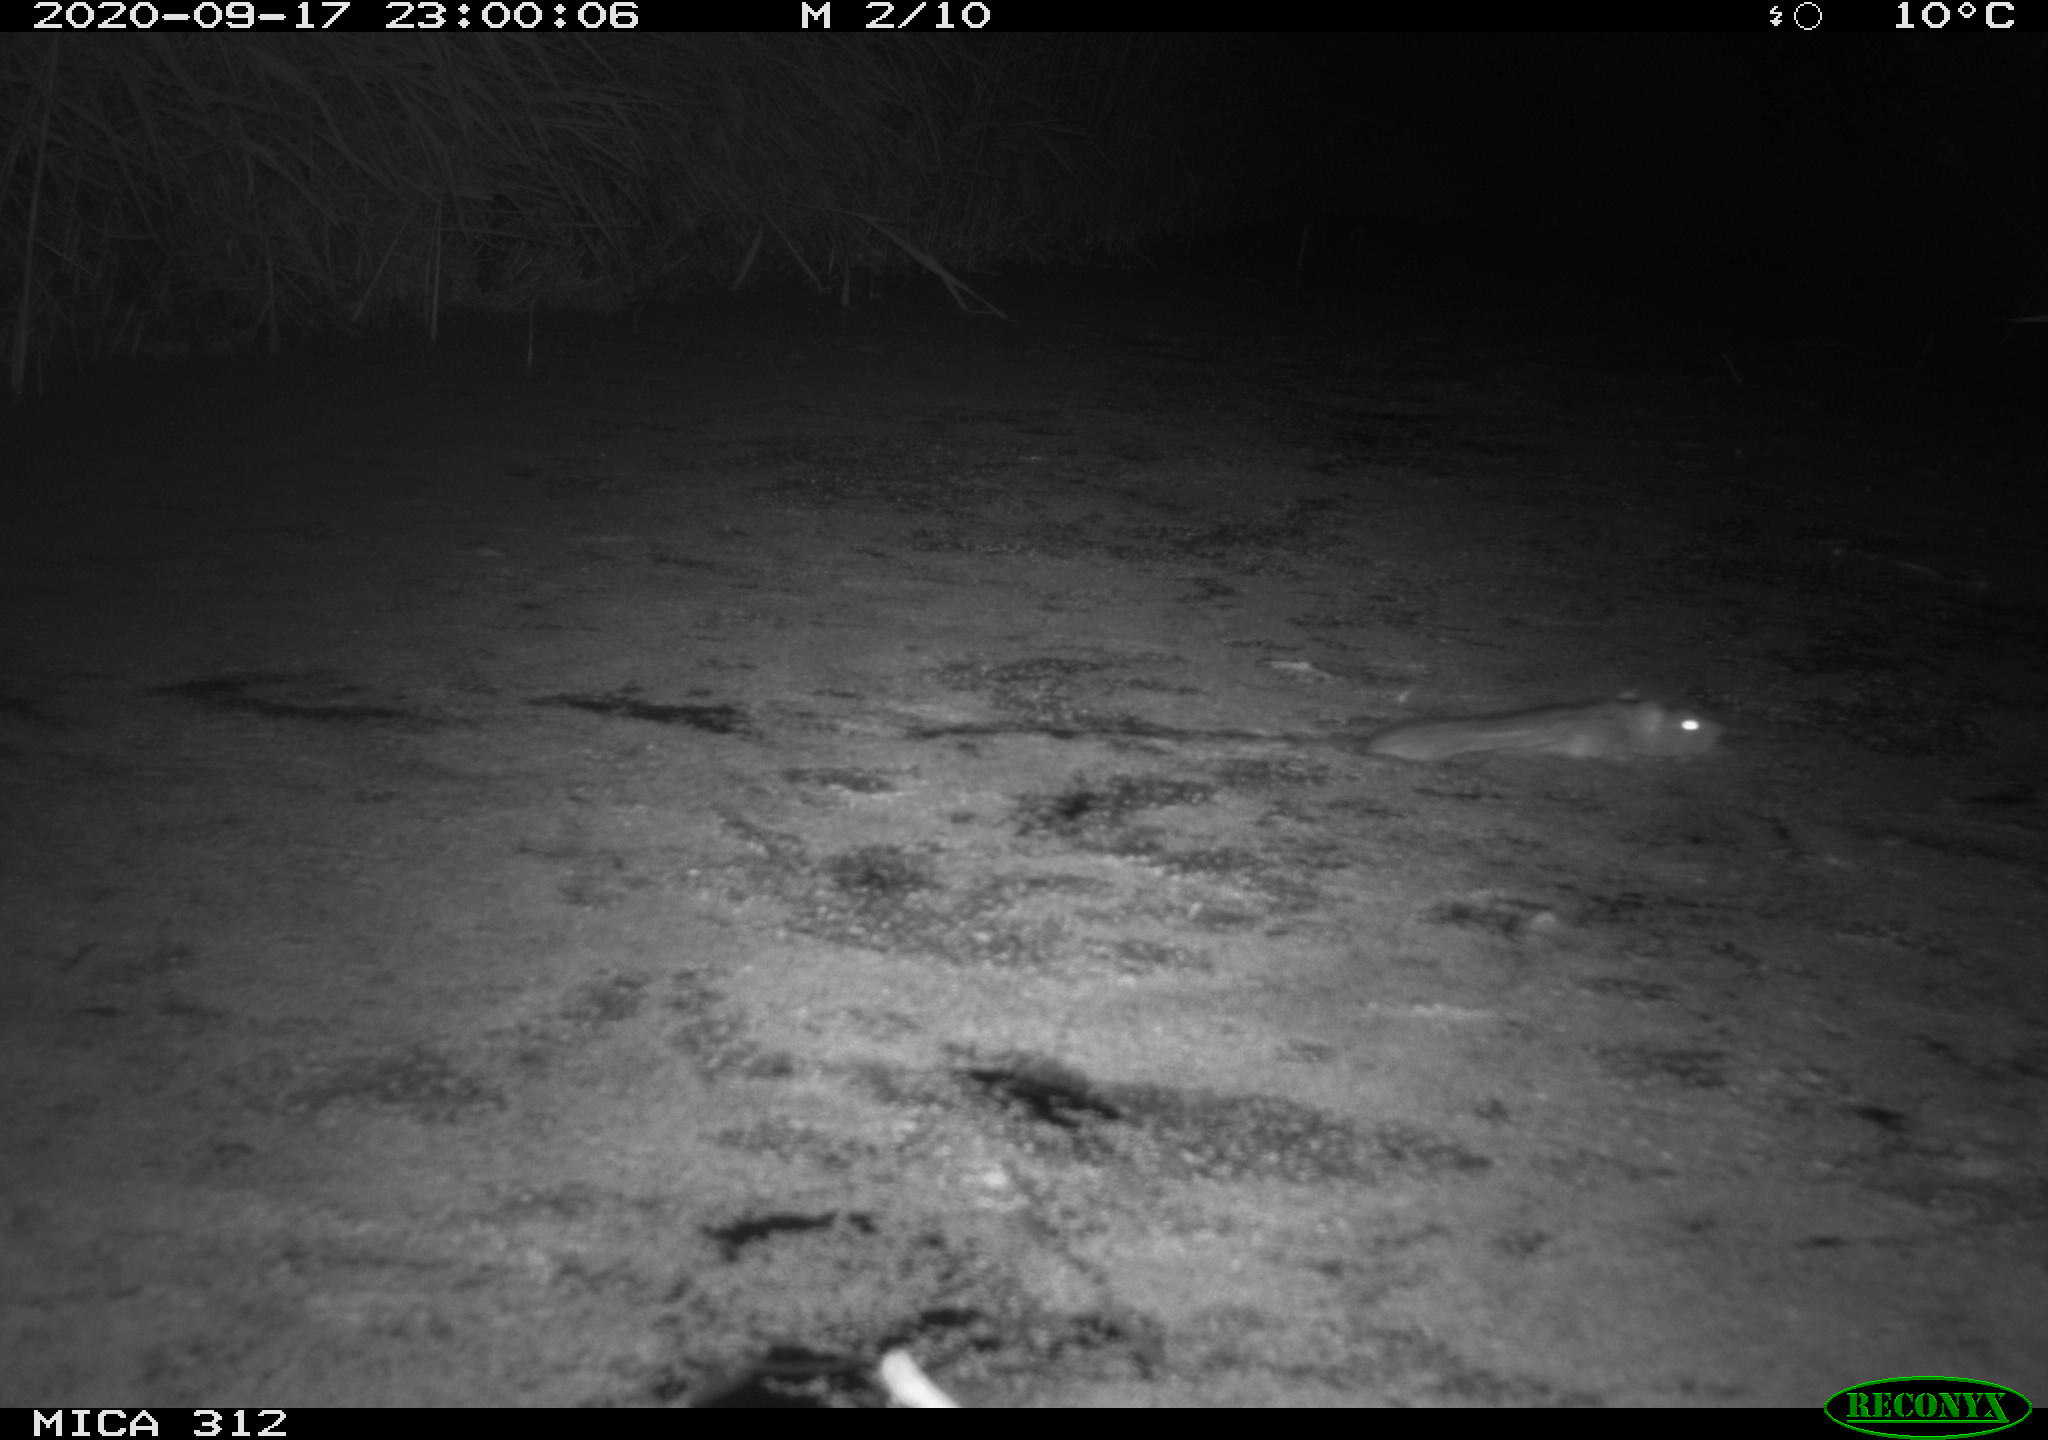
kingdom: Animalia
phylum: Chordata
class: Mammalia
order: Rodentia
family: Muridae
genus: Rattus
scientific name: Rattus norvegicus
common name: Brown rat
